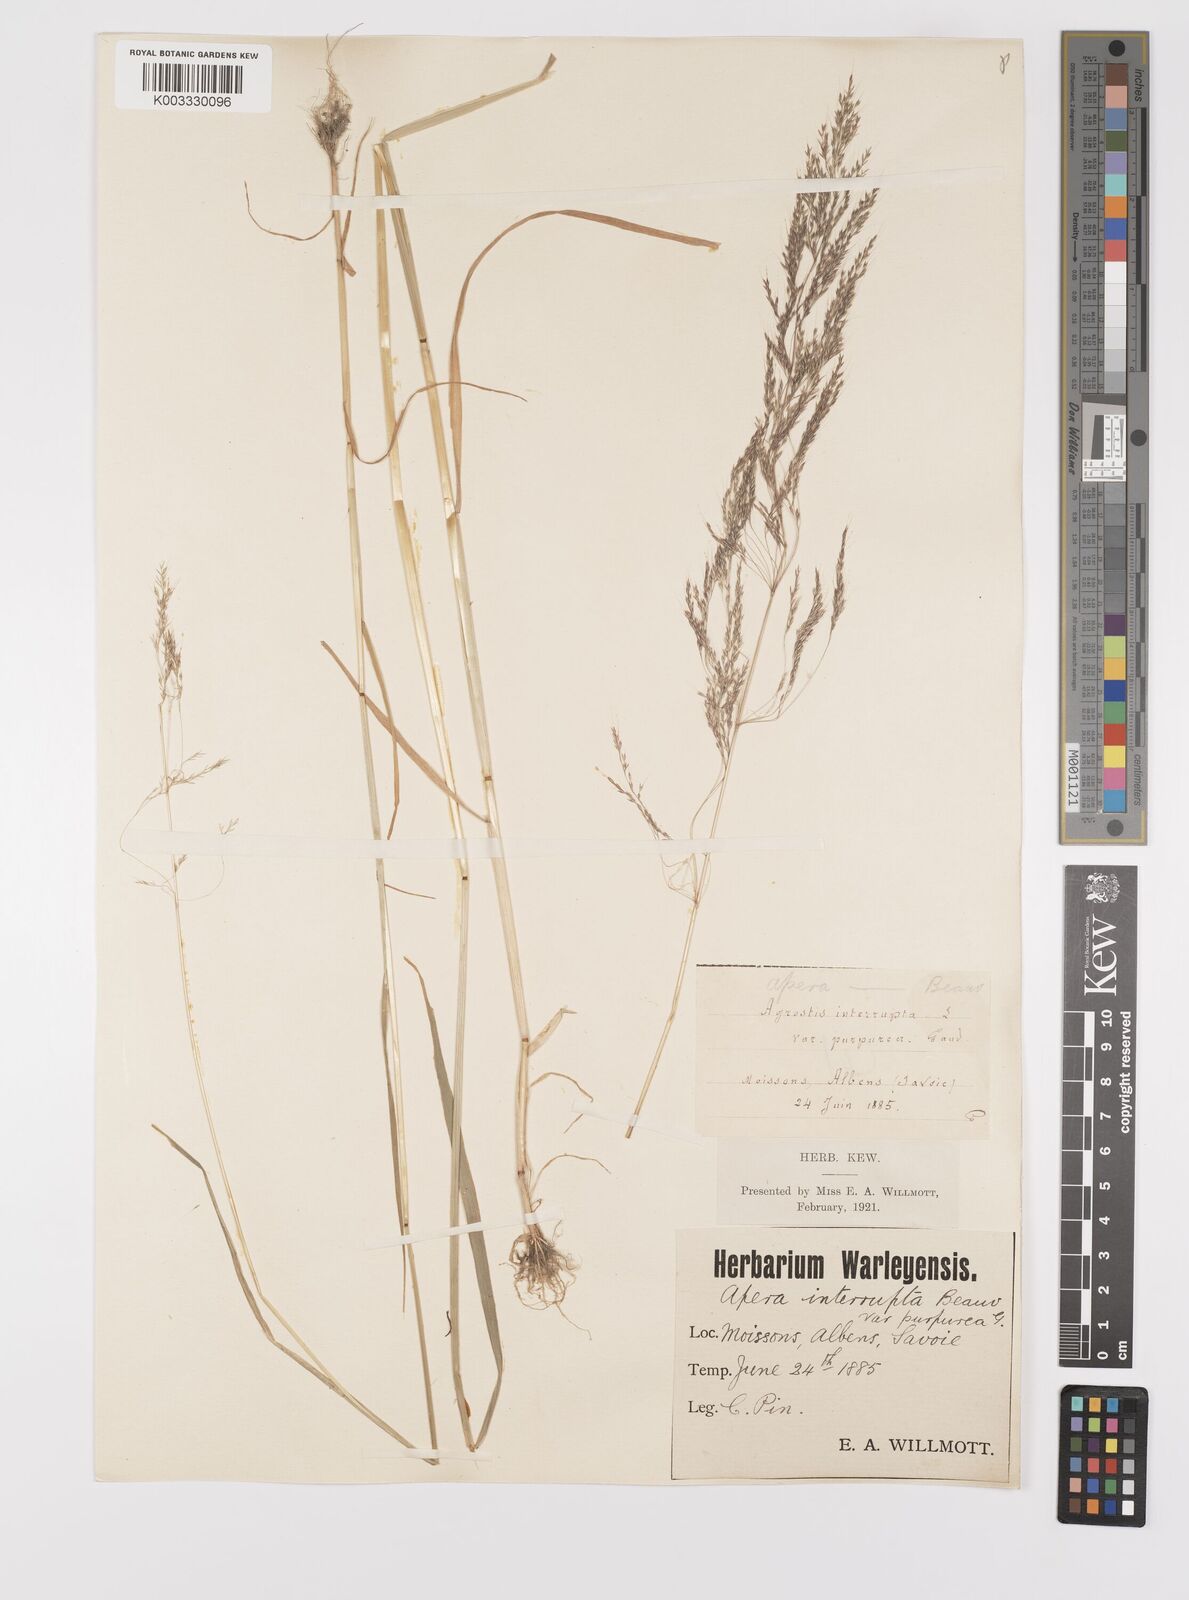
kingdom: Plantae
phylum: Tracheophyta
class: Liliopsida
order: Poales
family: Poaceae
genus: Apera
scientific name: Apera spica-venti
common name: Loose silky-bent
